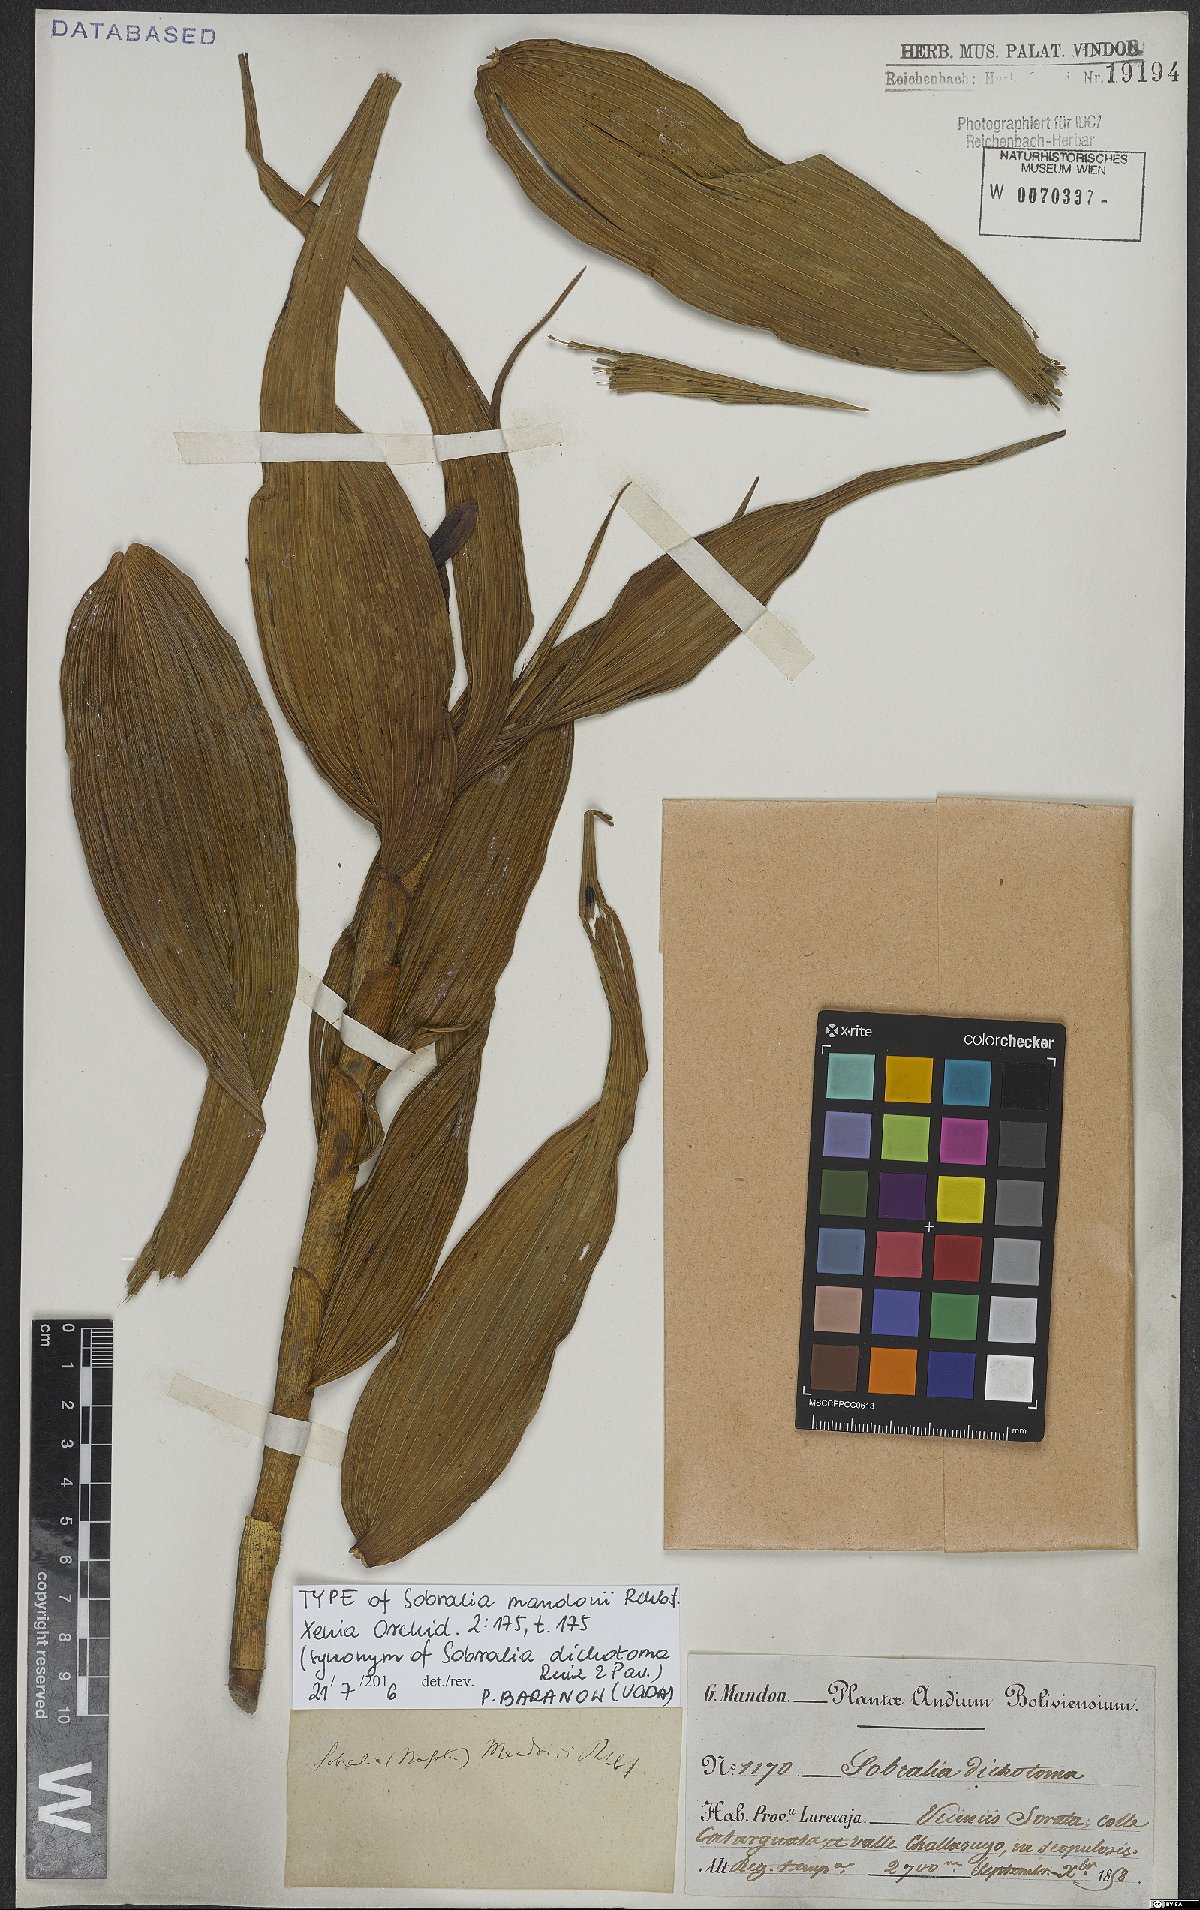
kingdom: Plantae
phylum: Tracheophyta
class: Liliopsida
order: Asparagales
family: Orchidaceae
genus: Sobralia
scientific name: Sobralia dichotoma
